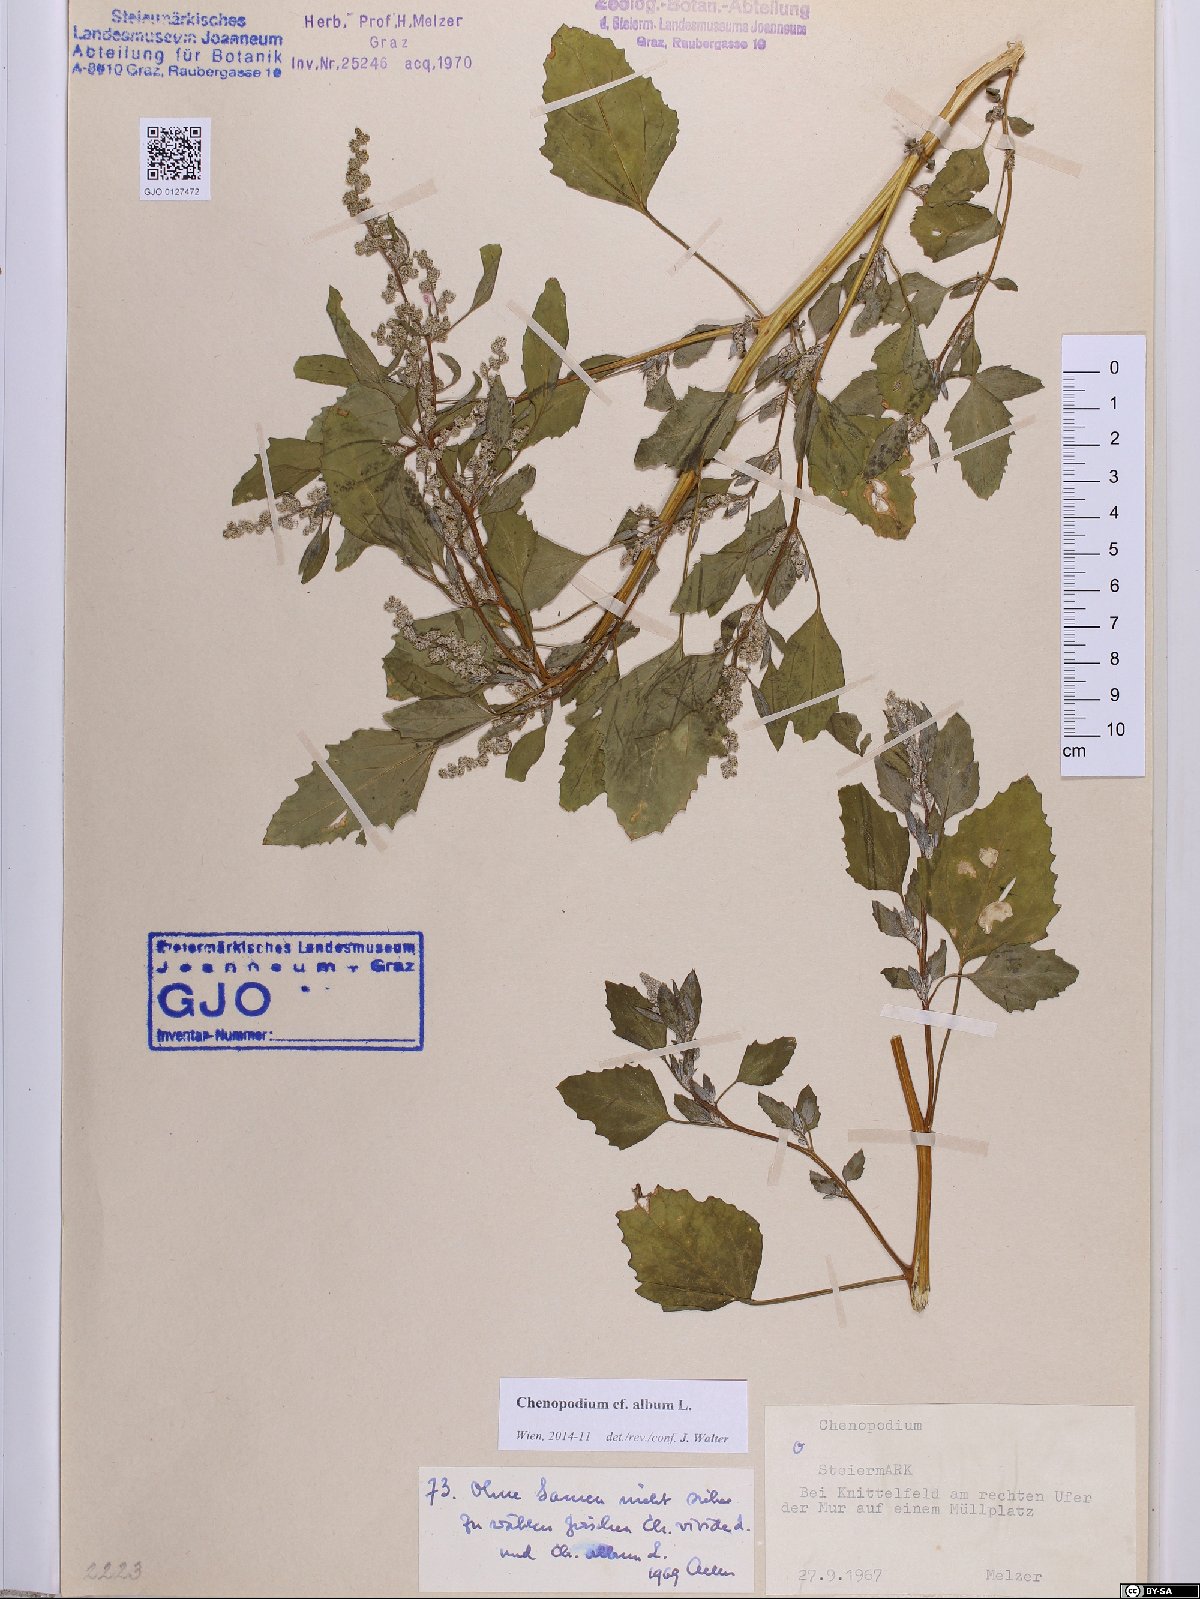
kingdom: Plantae
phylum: Tracheophyta
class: Magnoliopsida
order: Caryophyllales
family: Amaranthaceae
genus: Chenopodium
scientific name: Chenopodium album
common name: Fat-hen
